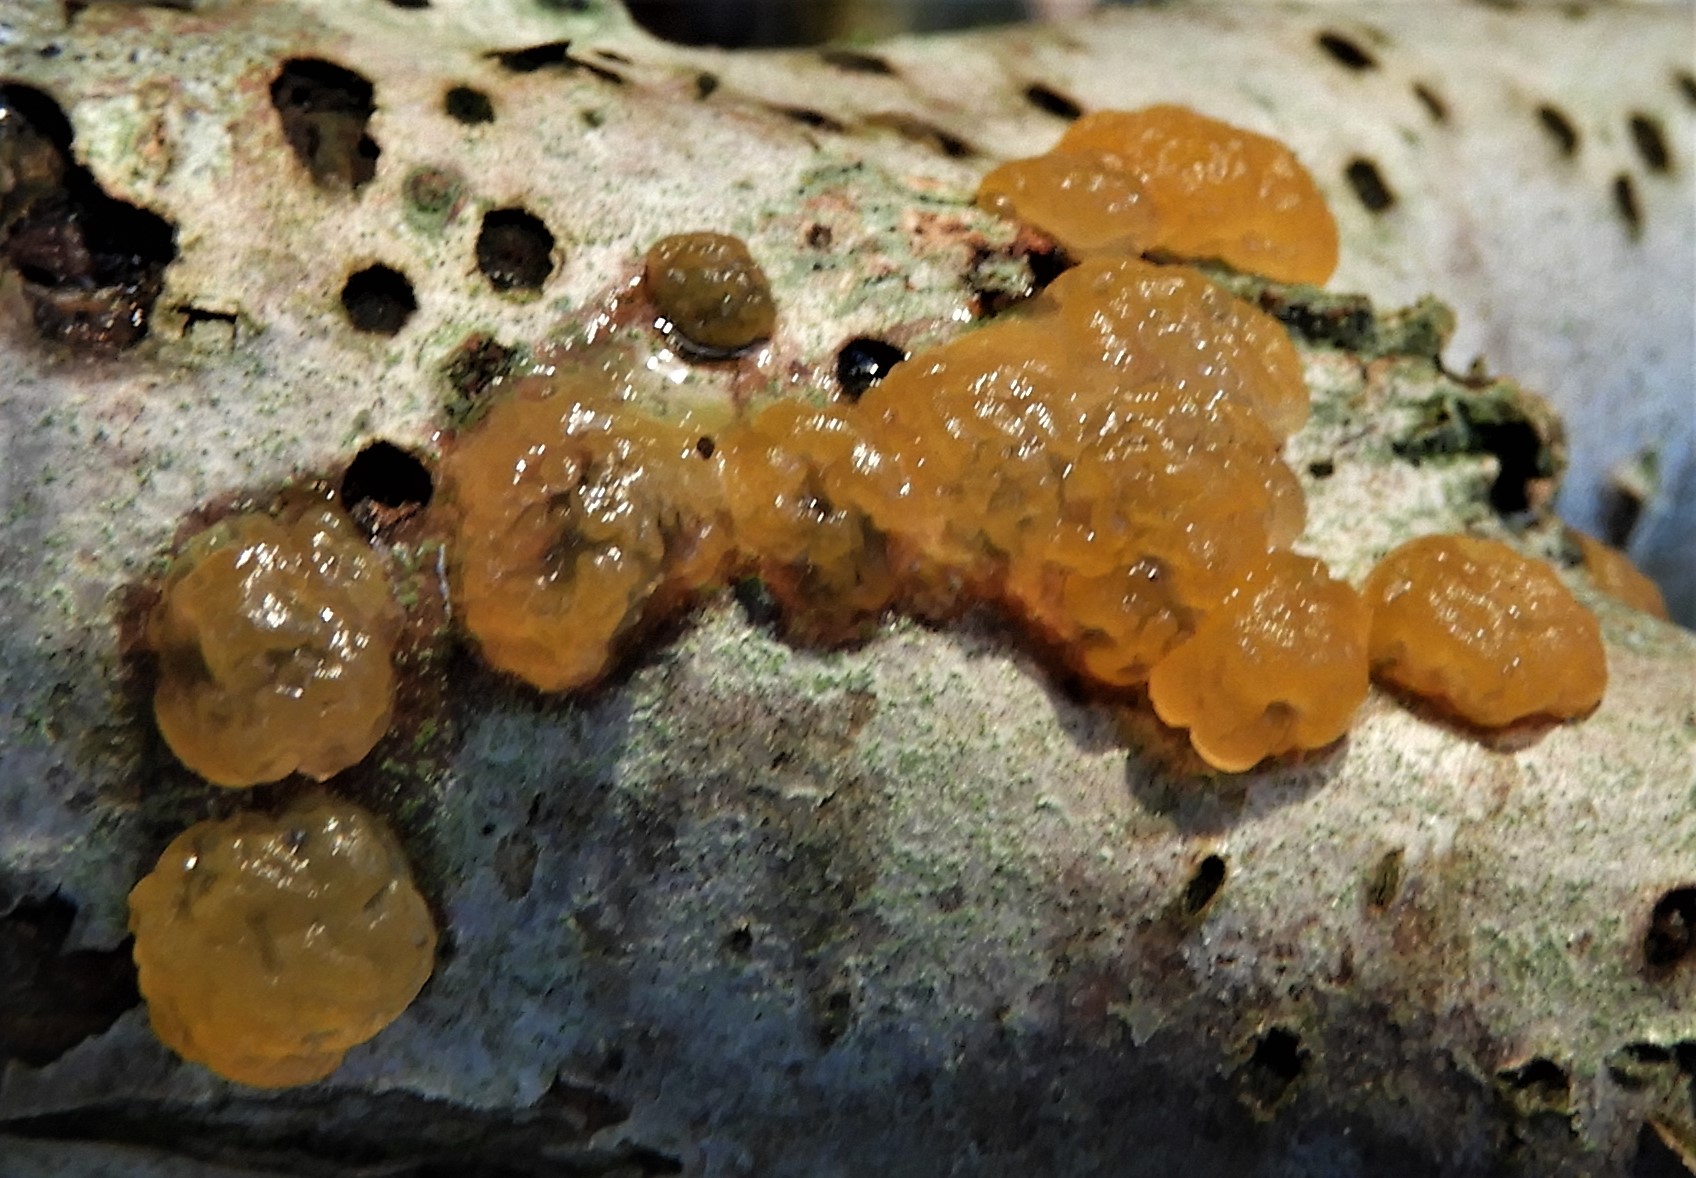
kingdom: Fungi
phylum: Basidiomycota
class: Dacrymycetes
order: Dacrymycetales
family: Dacrymycetaceae
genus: Dacrymyces
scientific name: Dacrymyces lacrymalis
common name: rynket tåresvamp
